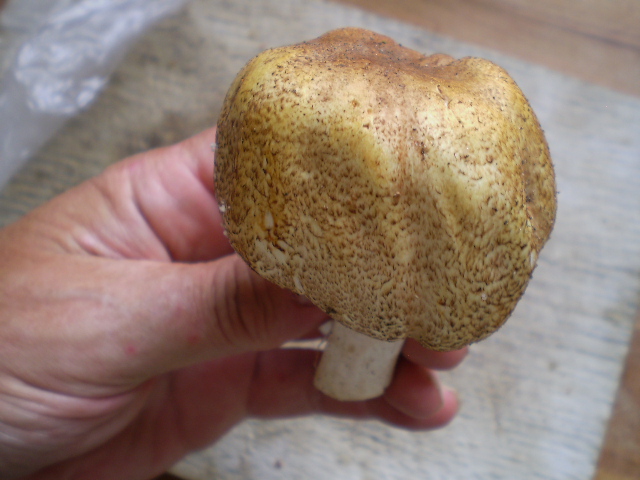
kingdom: Fungi
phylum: Basidiomycota
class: Agaricomycetes
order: Agaricales
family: Agaricaceae
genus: Agaricus
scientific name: Agaricus augustus
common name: prægtig champignon
